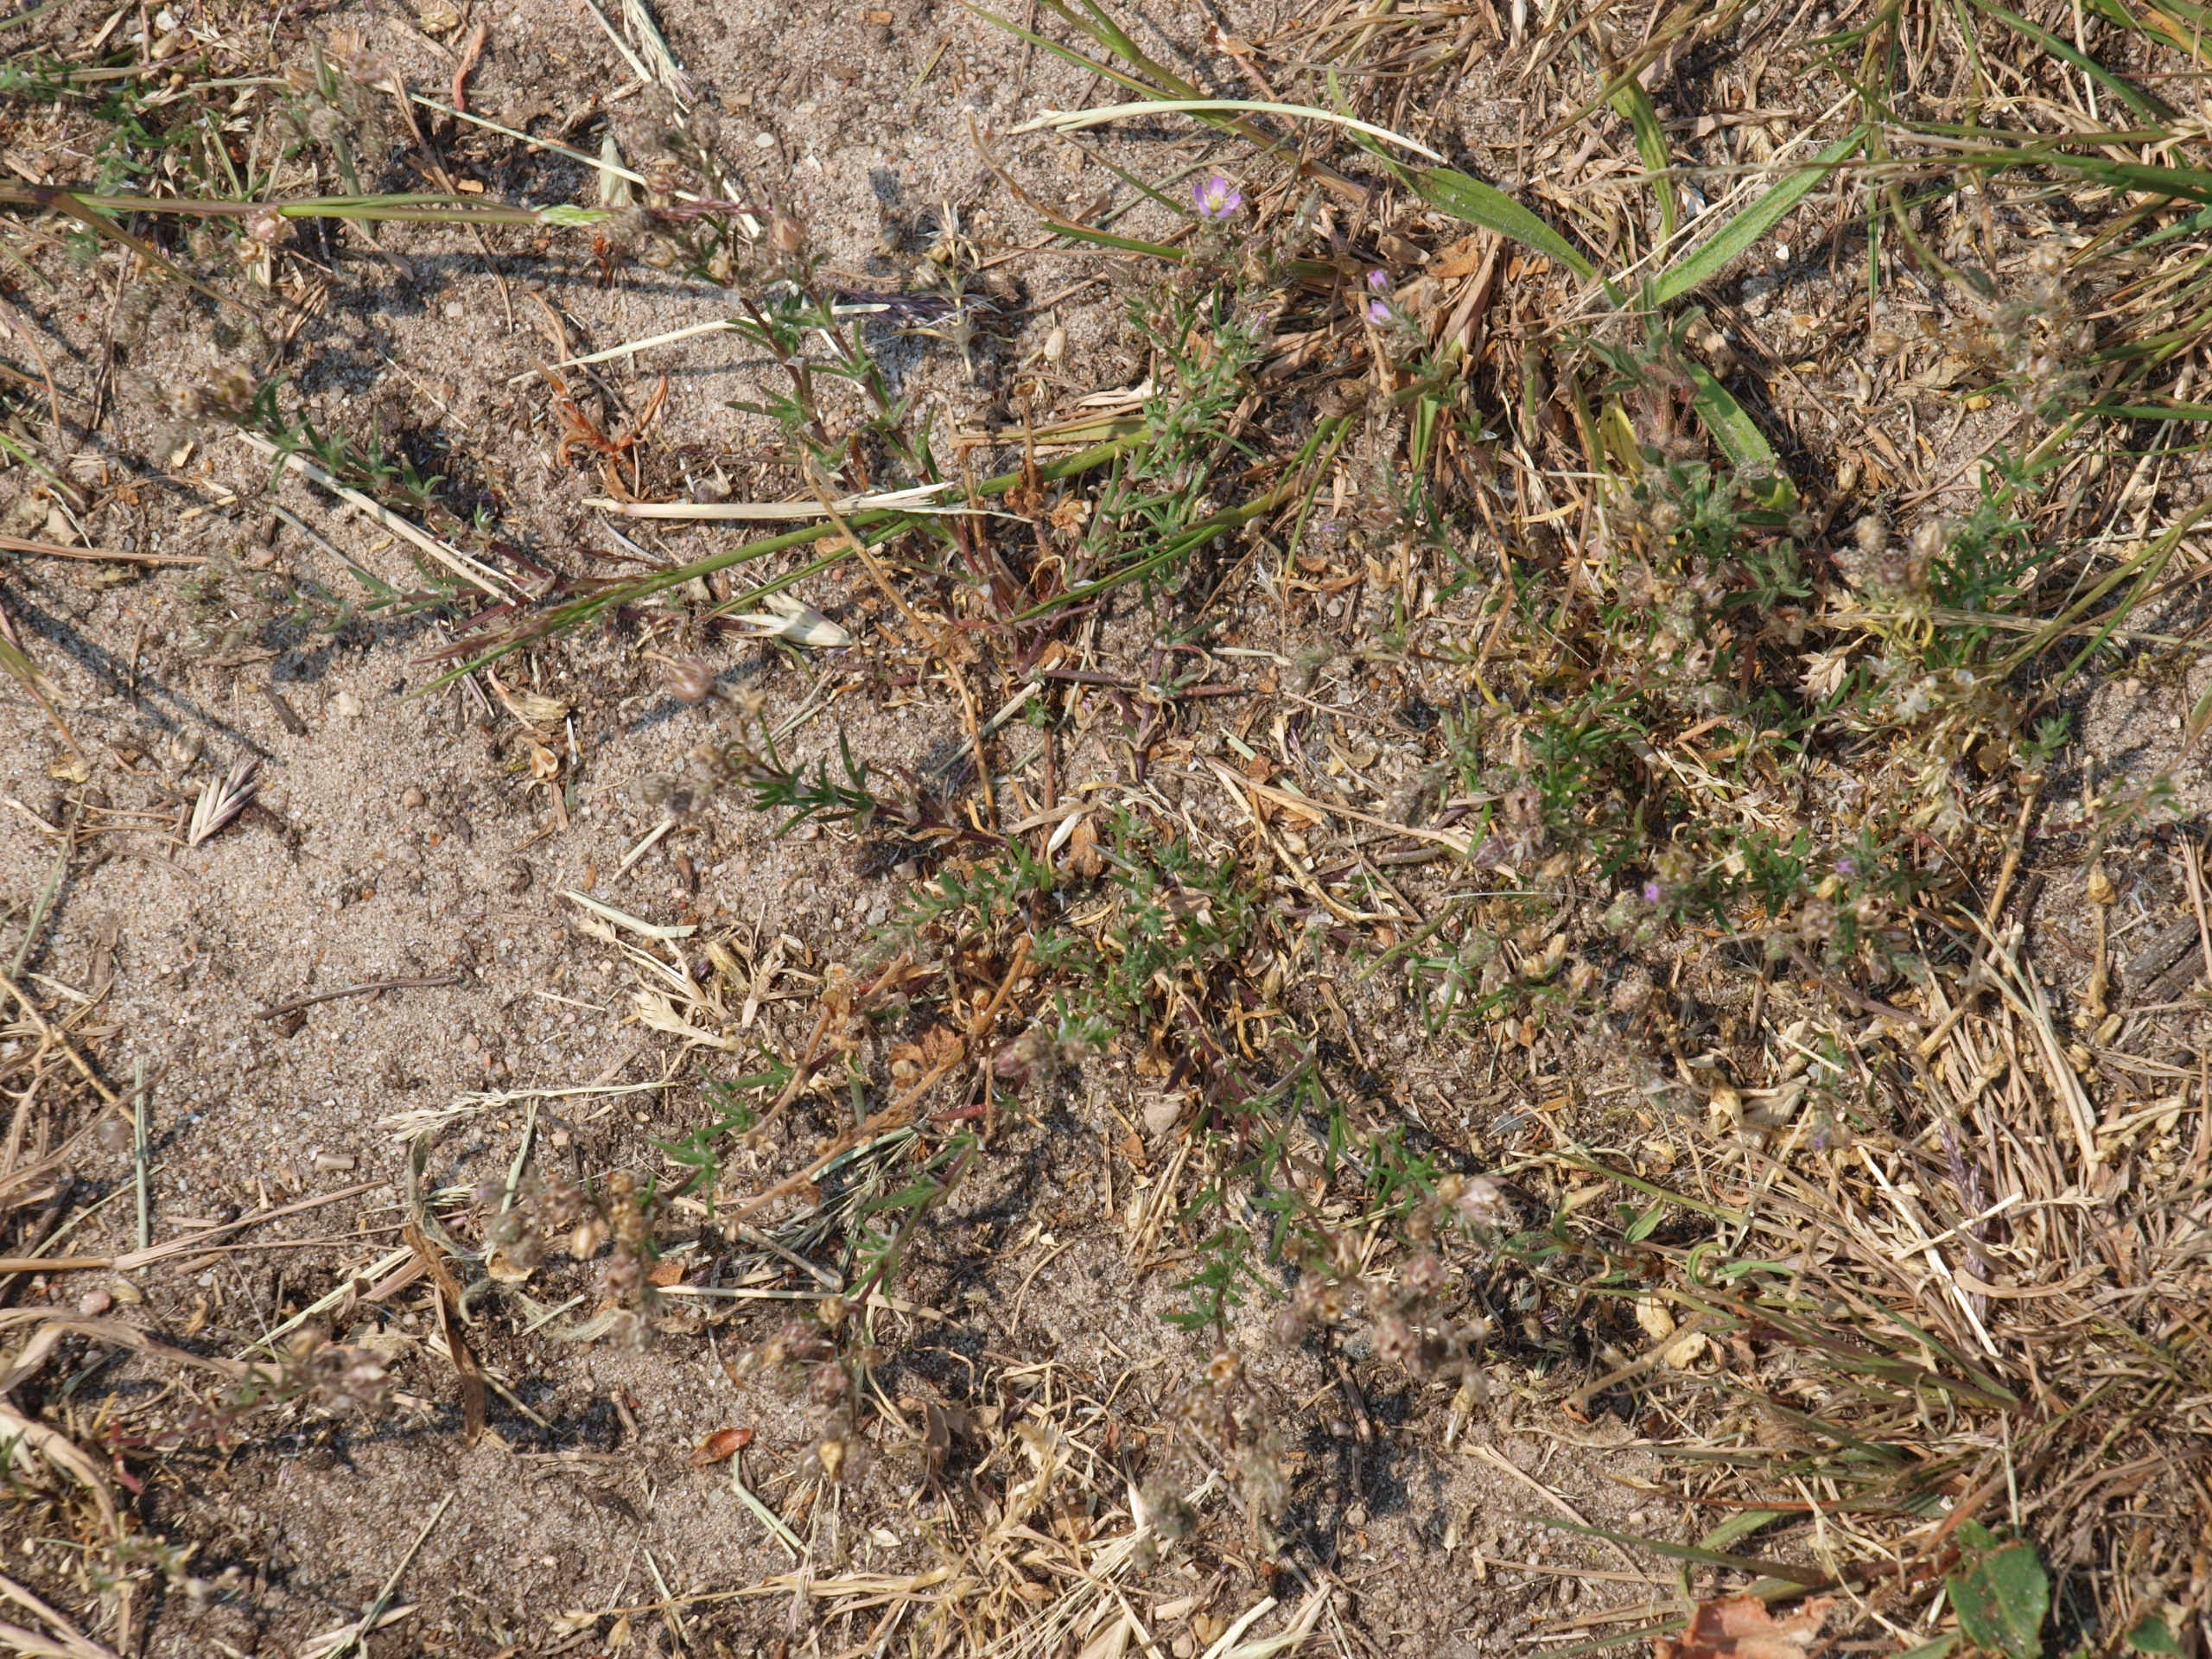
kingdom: Plantae
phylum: Tracheophyta
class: Magnoliopsida
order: Caryophyllales
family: Caryophyllaceae
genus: Spergularia
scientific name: Spergularia rubra
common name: Mark-hindeknæ
